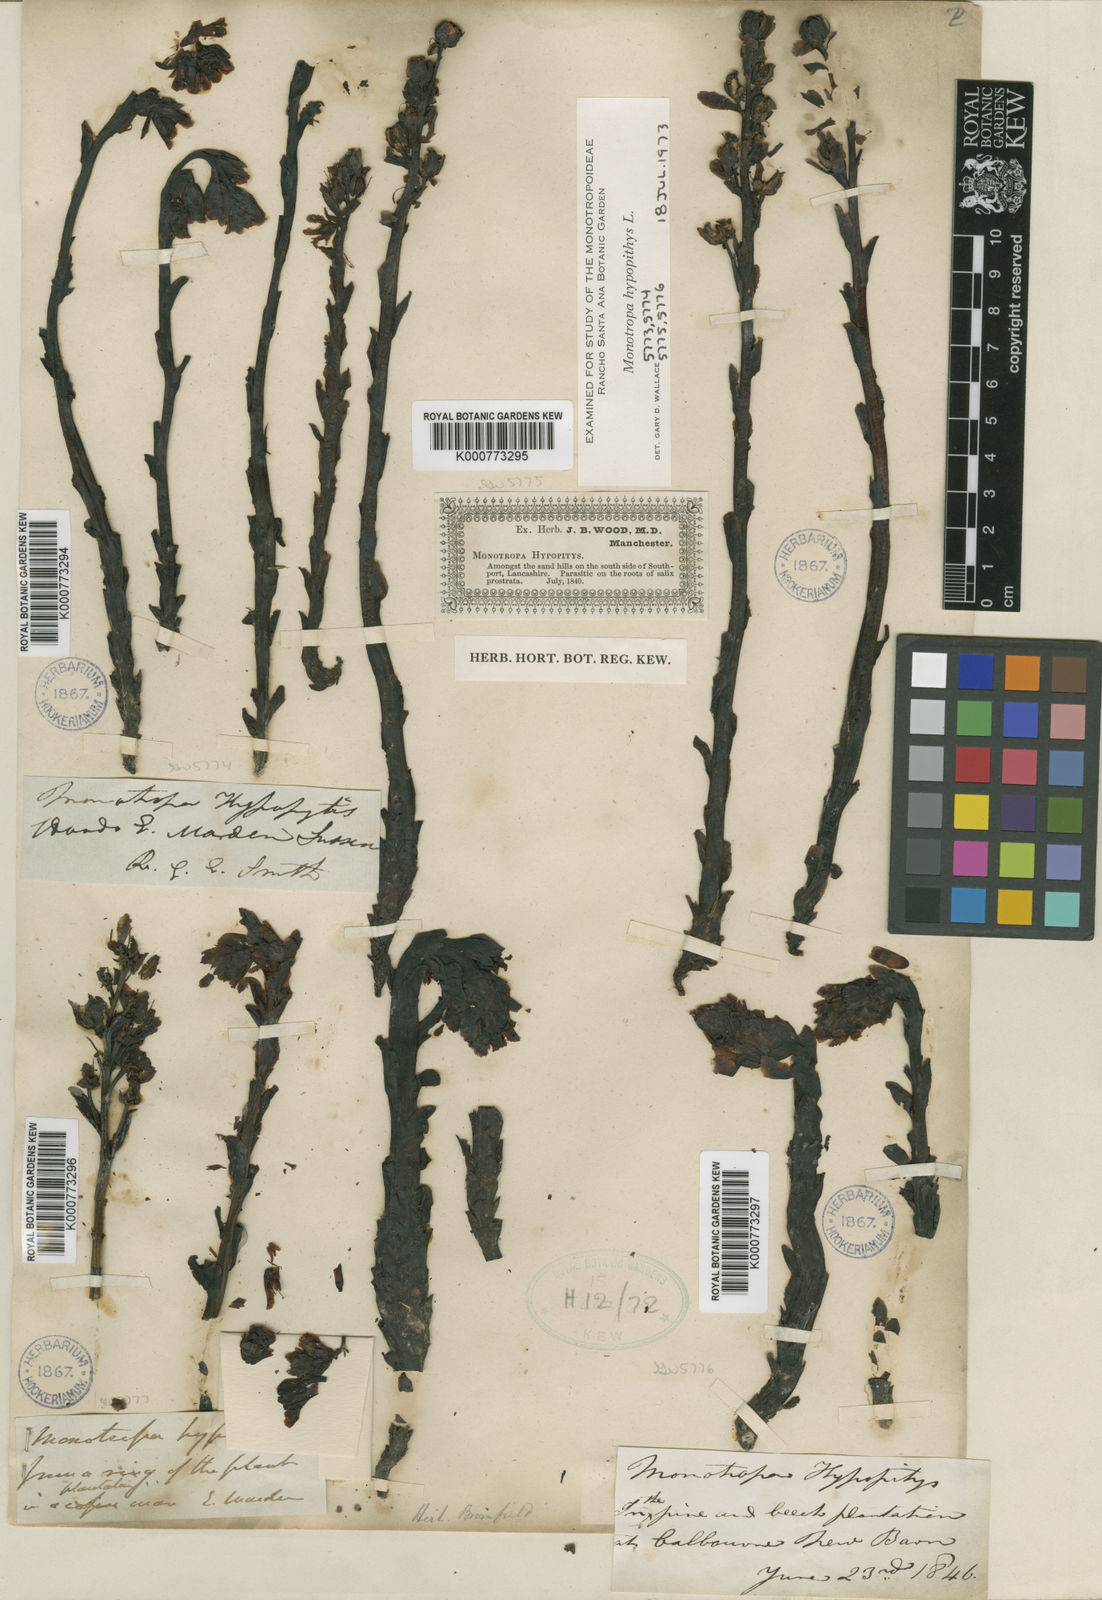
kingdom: Plantae
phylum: Tracheophyta
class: Magnoliopsida
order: Ericales
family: Ericaceae
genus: Monotropa
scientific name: Monotropa
